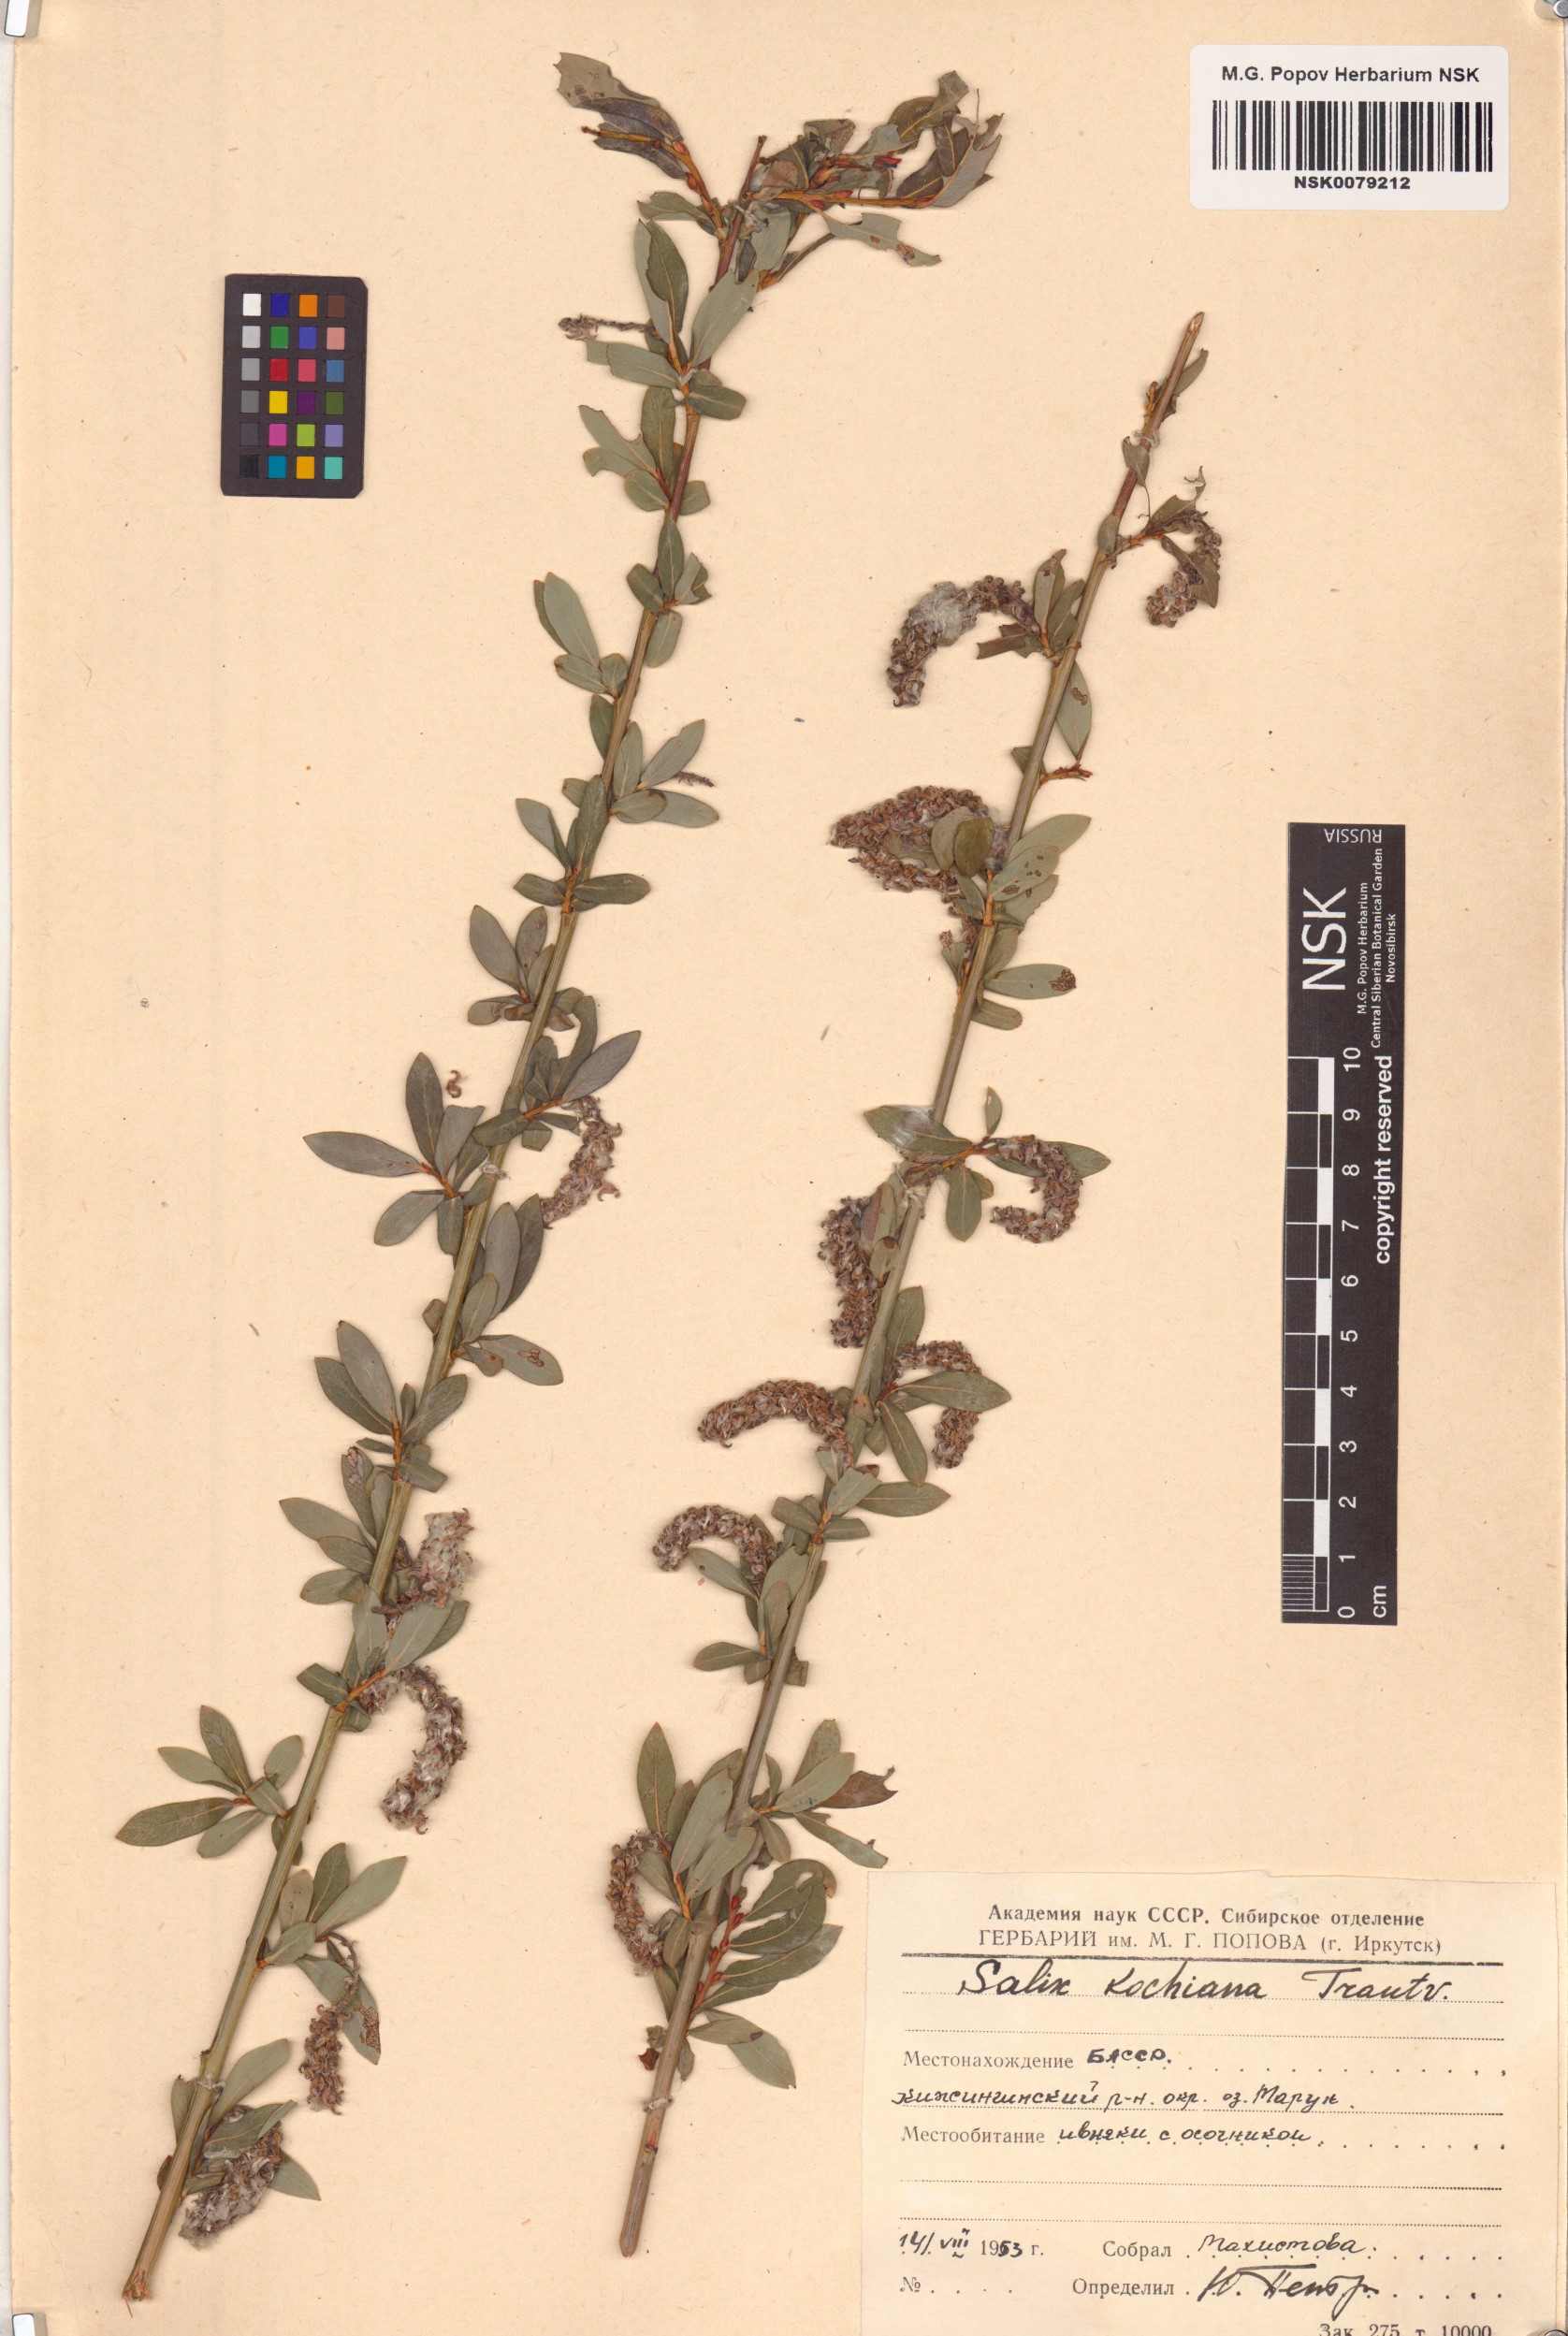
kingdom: Plantae
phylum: Tracheophyta
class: Magnoliopsida
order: Malpighiales
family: Salicaceae
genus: Salix
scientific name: Salix kochiana
